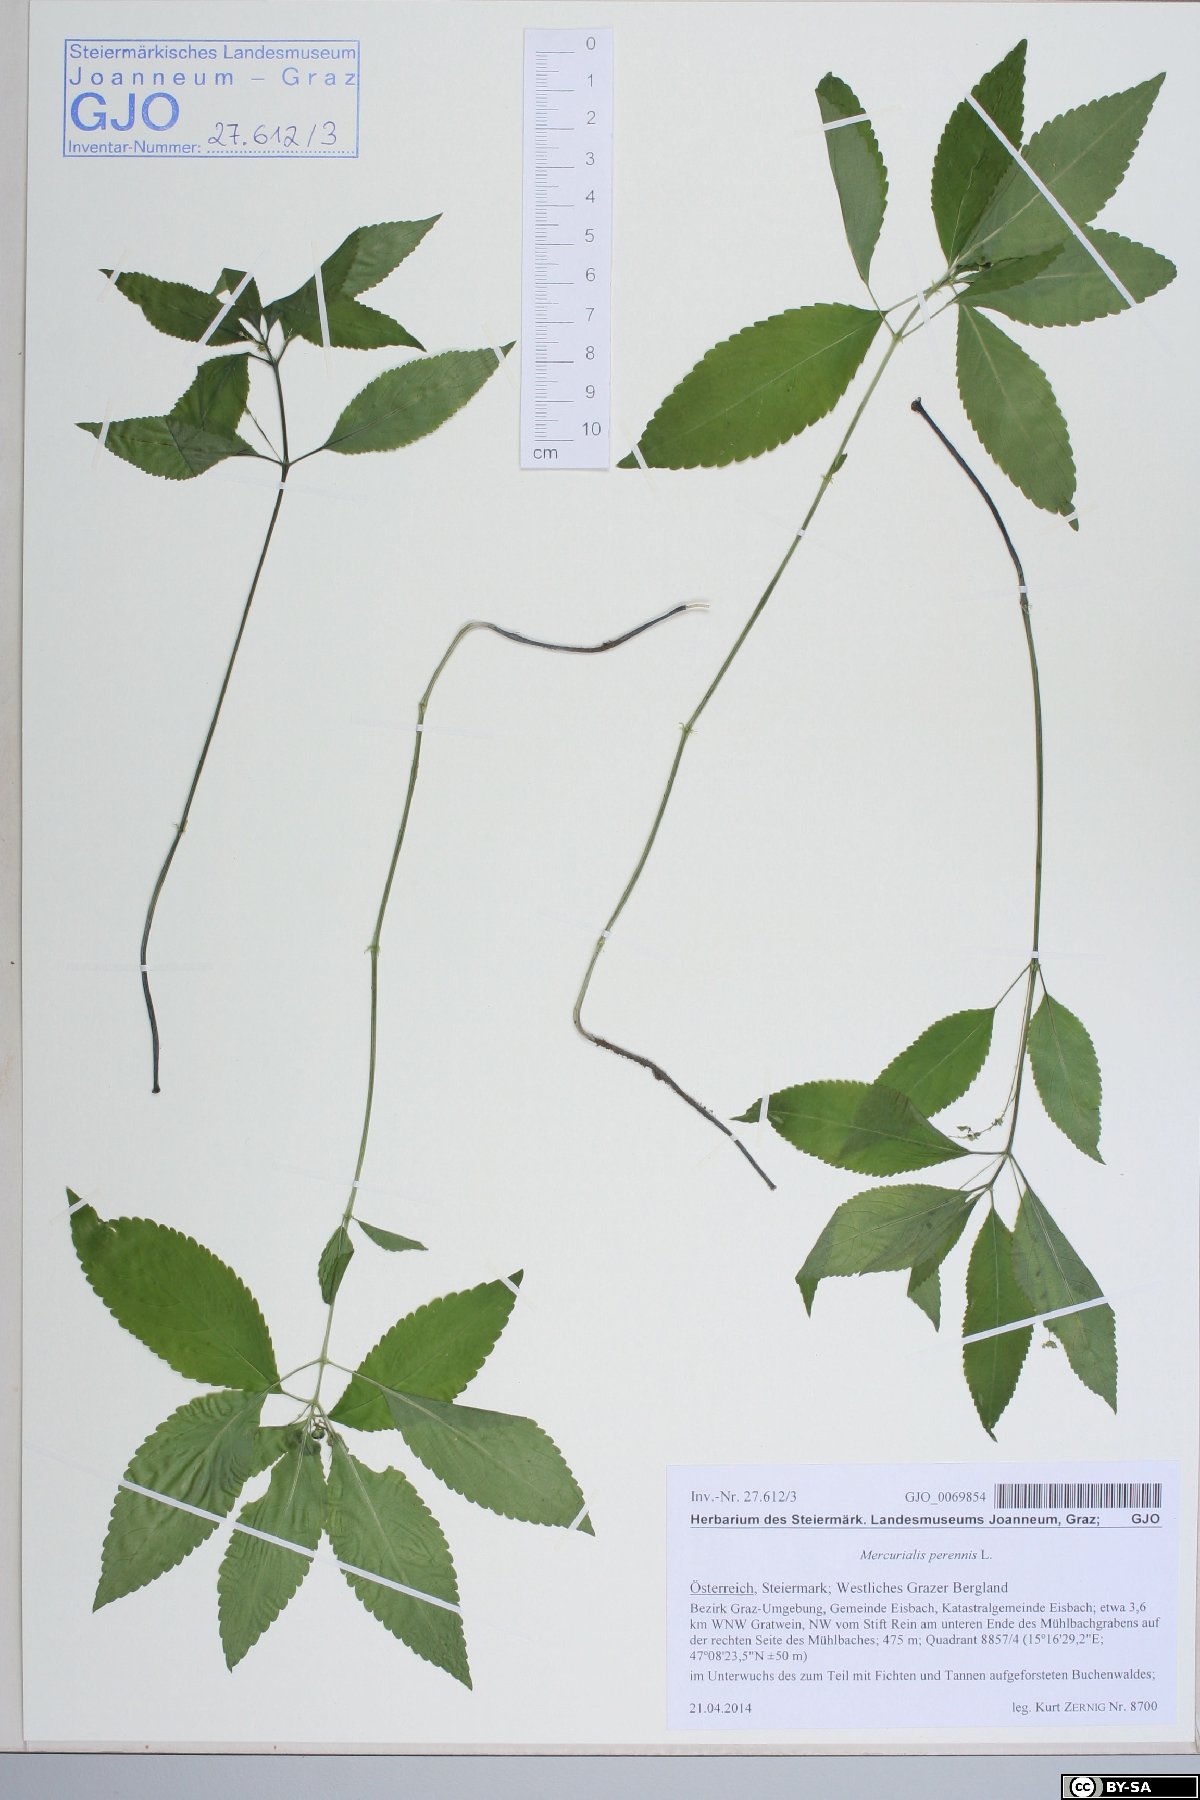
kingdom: Plantae
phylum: Tracheophyta
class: Magnoliopsida
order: Malpighiales
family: Euphorbiaceae
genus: Mercurialis
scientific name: Mercurialis perennis
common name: Dog mercury
